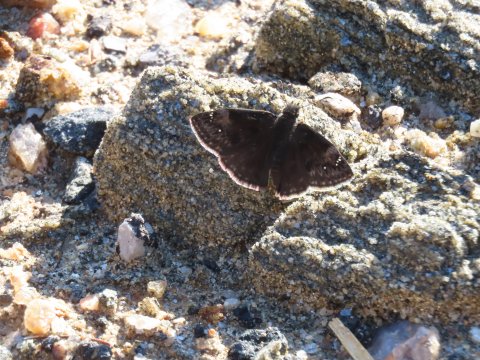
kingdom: Animalia
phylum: Arthropoda
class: Insecta
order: Lepidoptera
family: Hesperiidae
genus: Gesta
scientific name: Gesta
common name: Wild Indigo Duskywing
